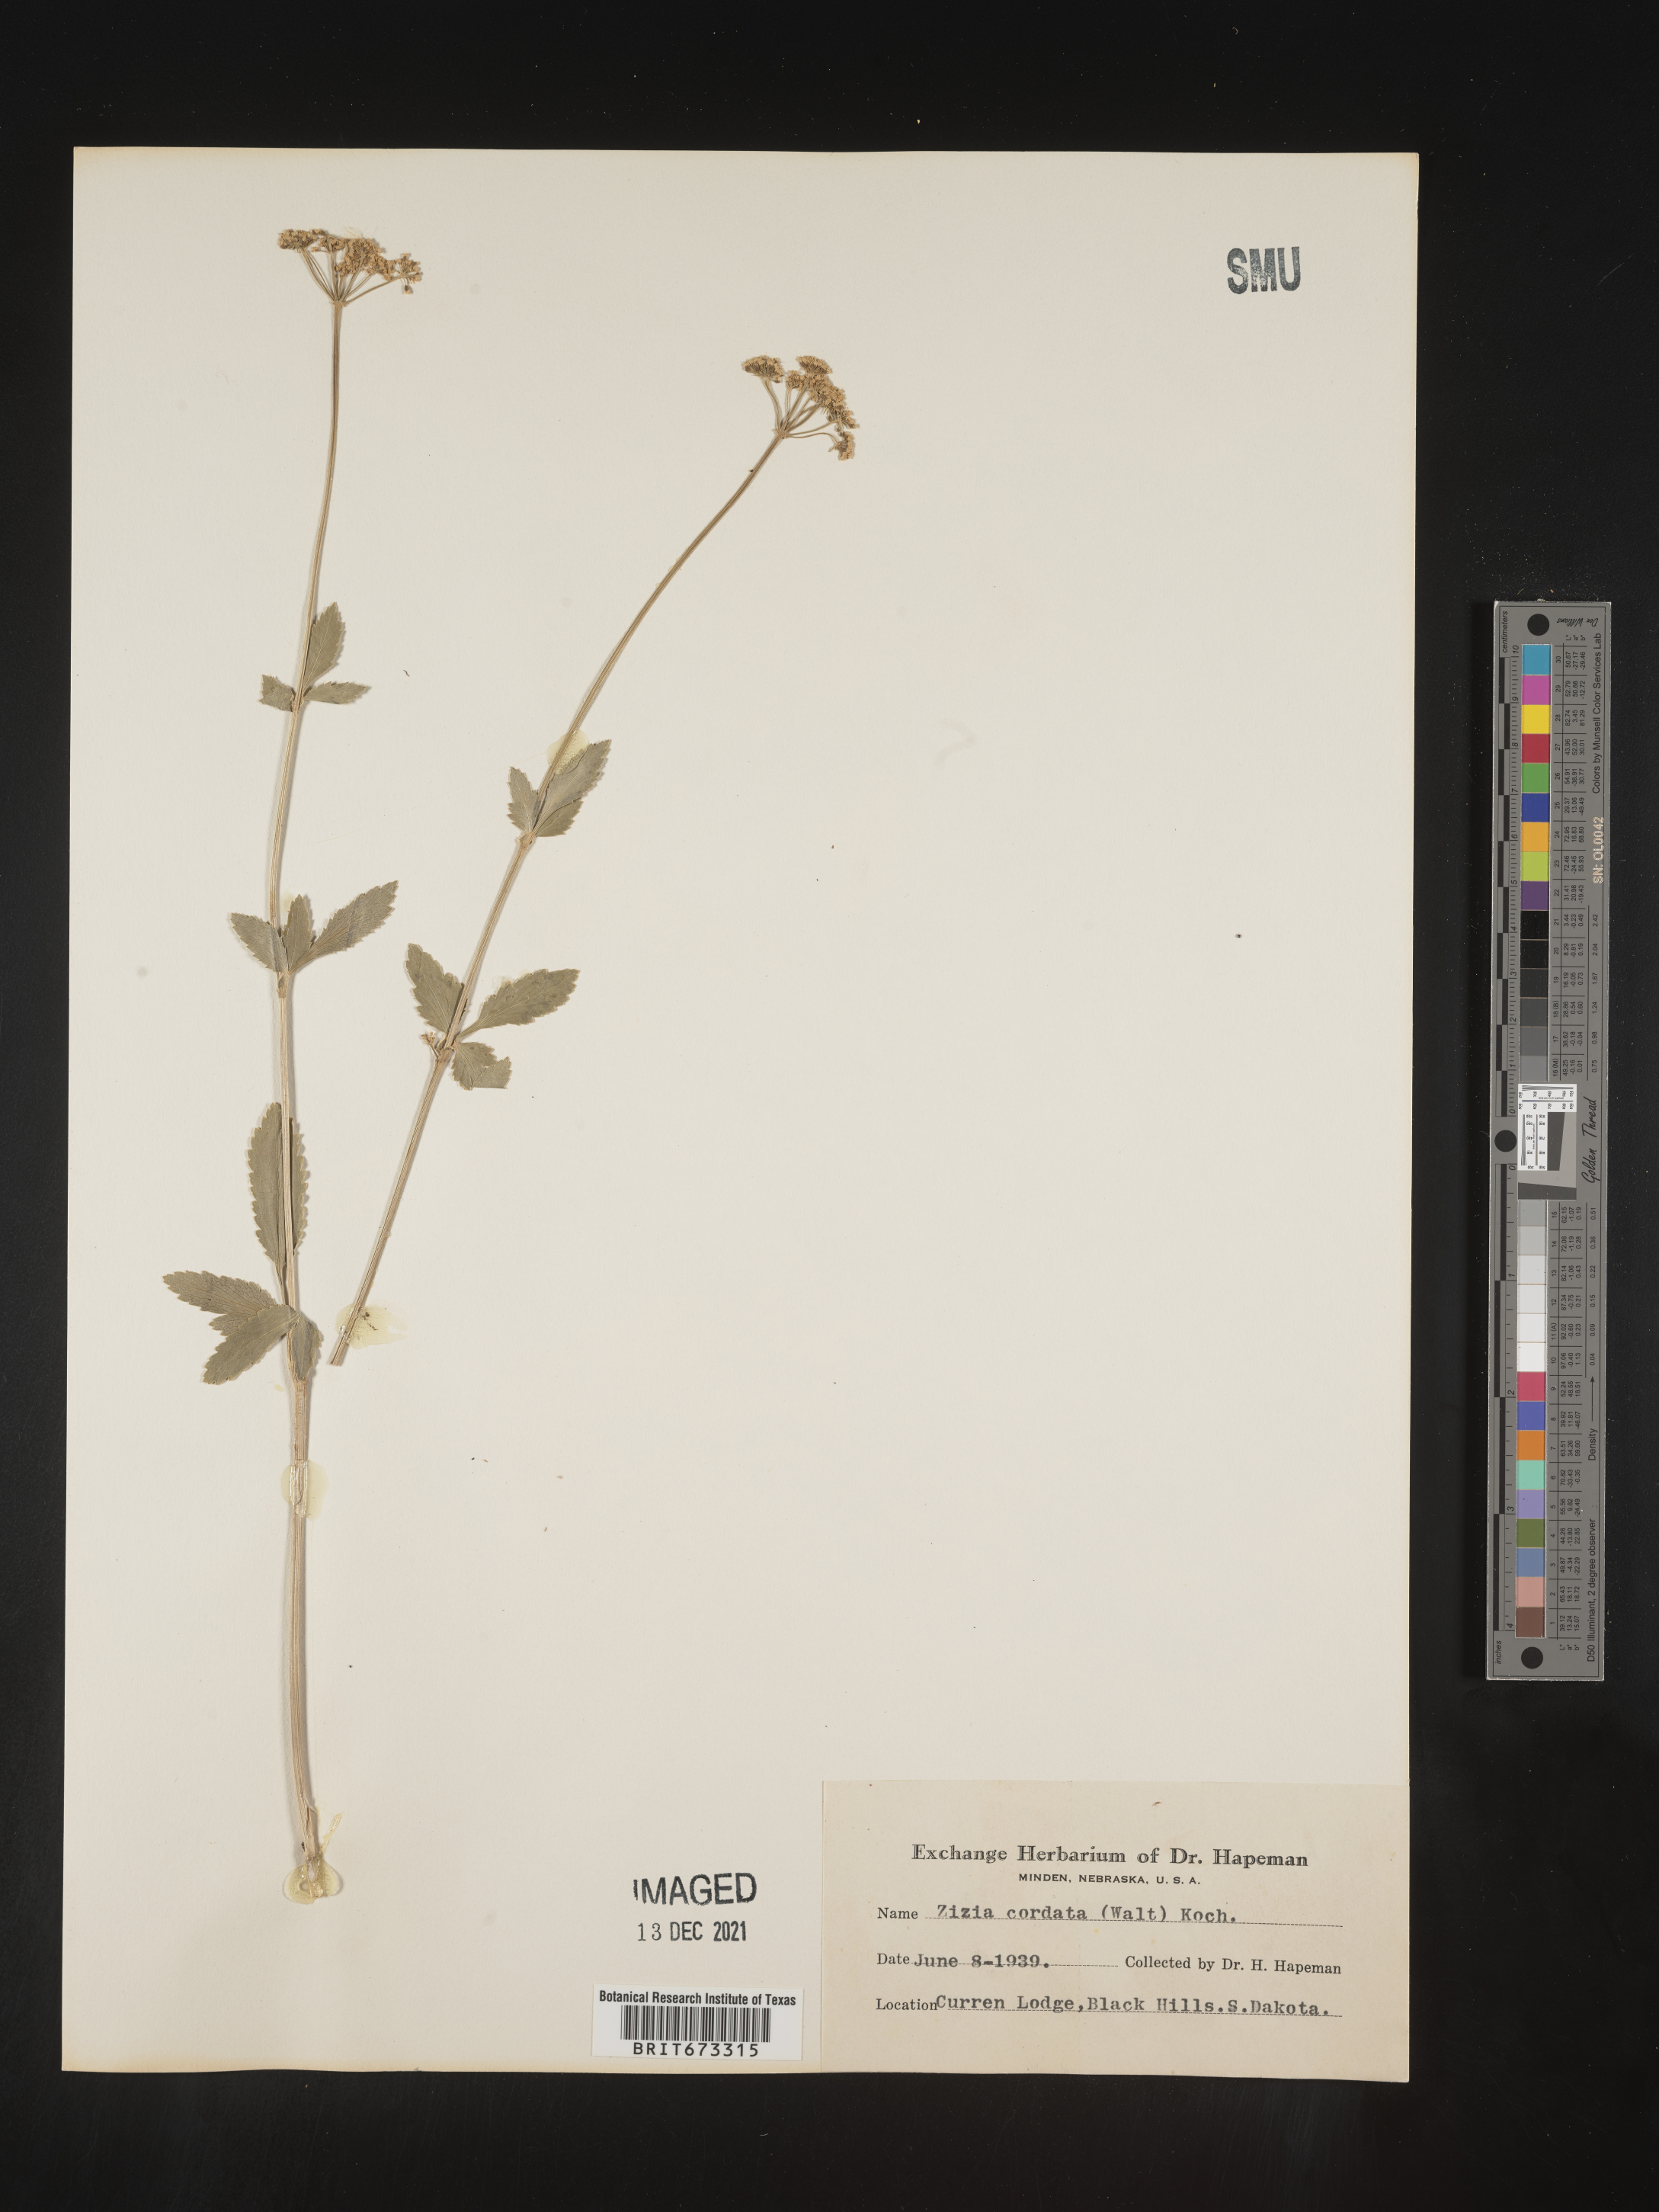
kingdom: Plantae
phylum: Tracheophyta
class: Magnoliopsida
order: Apiales
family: Apiaceae
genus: Zizia
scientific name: Zizia aptera
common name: Heart-leaved alexanders
